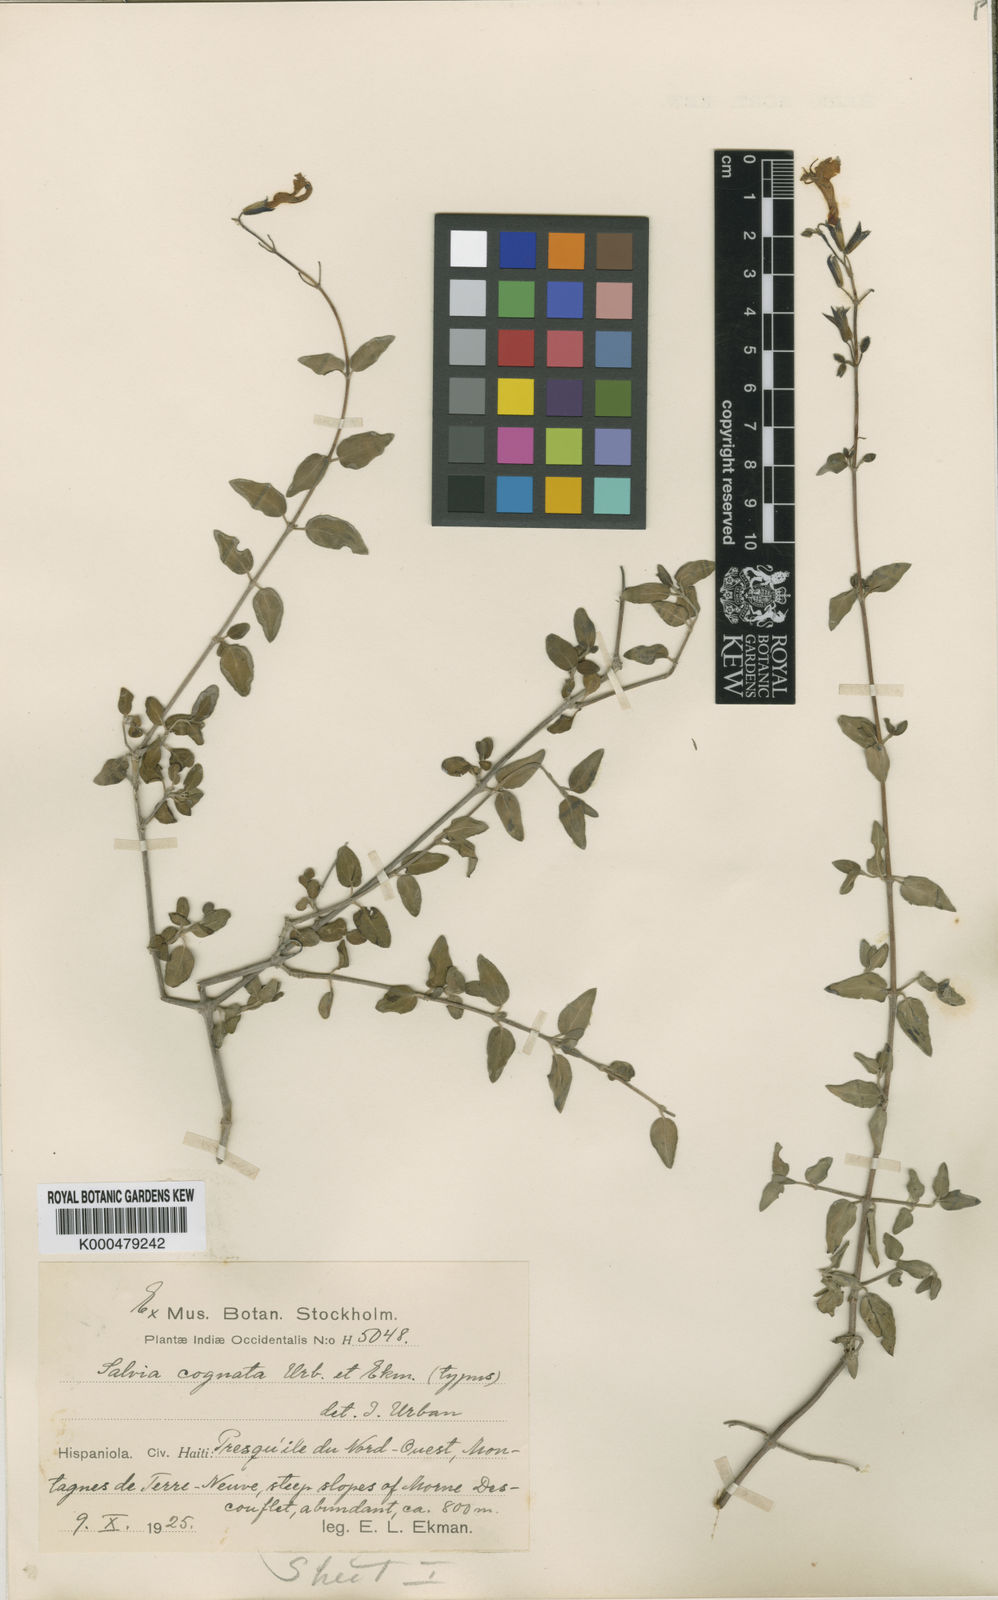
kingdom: Plantae
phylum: Tracheophyta
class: Magnoliopsida
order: Lamiales
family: Lamiaceae
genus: Salvia
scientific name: Salvia cognata
